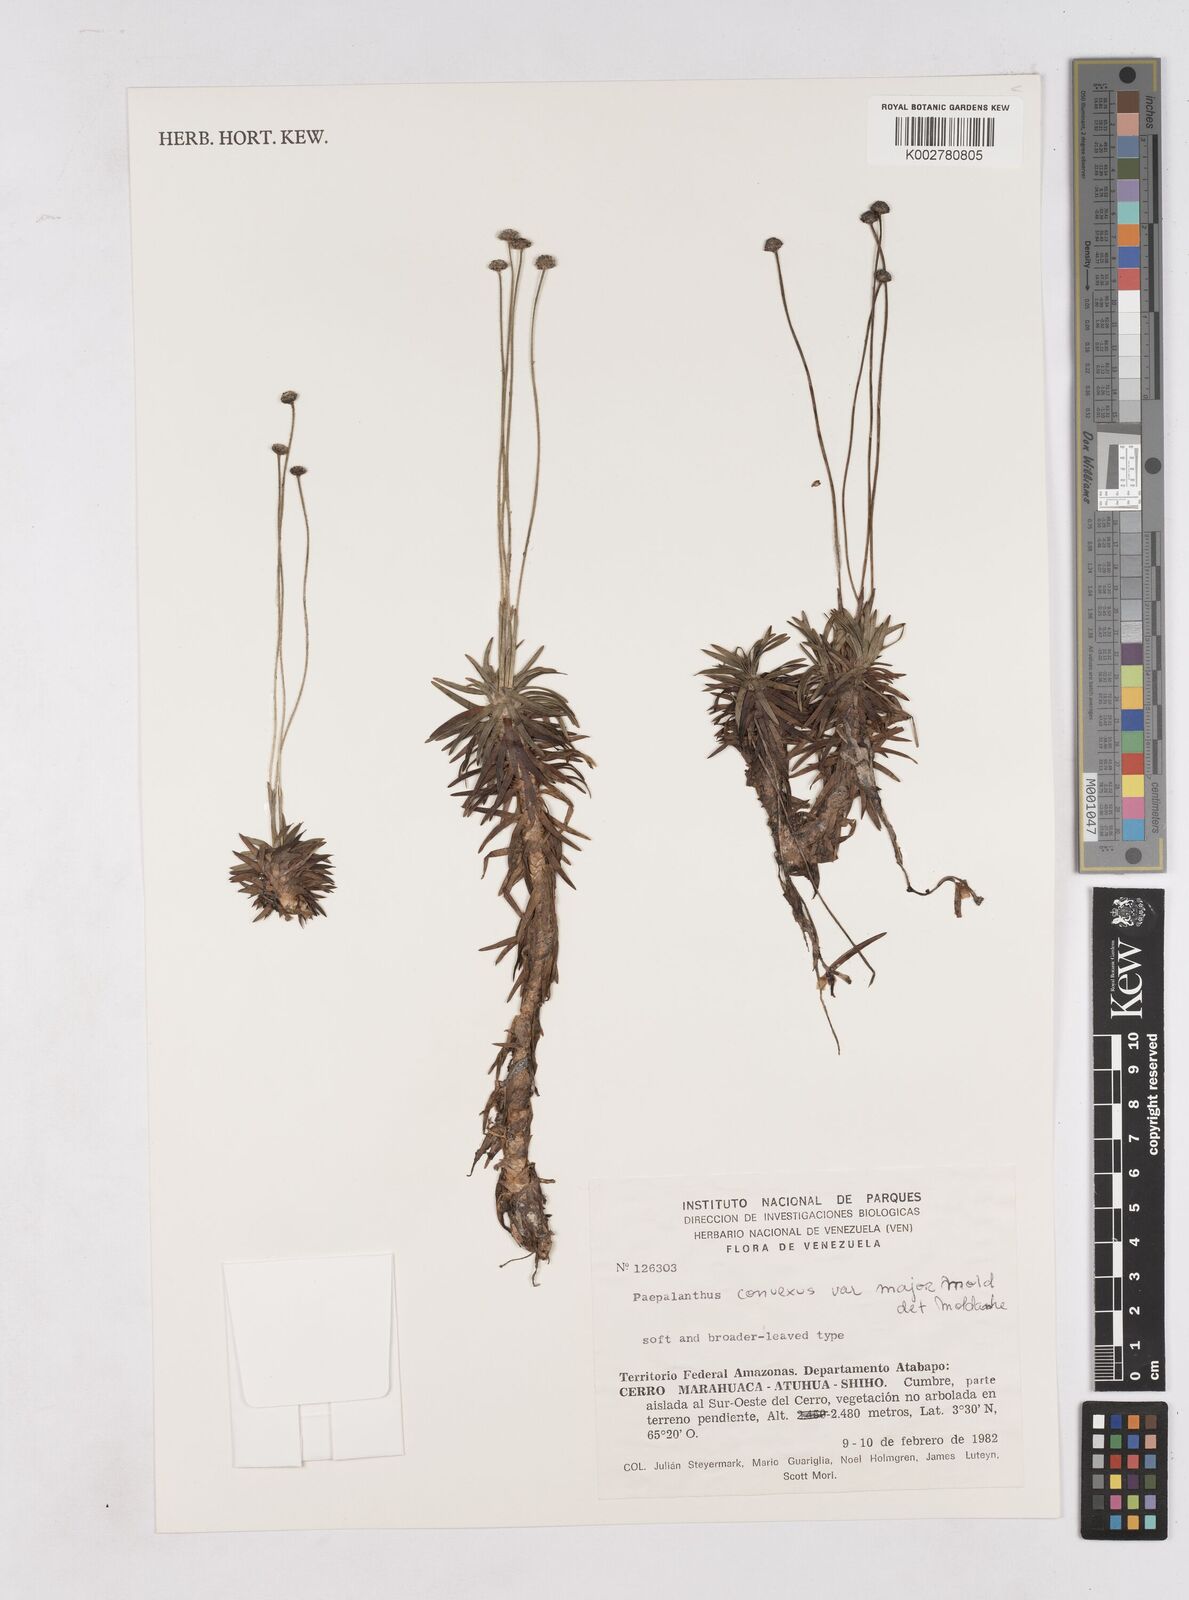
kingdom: Plantae
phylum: Tracheophyta
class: Liliopsida
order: Poales
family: Eriocaulaceae
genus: Paepalanthus
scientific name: Paepalanthus major
